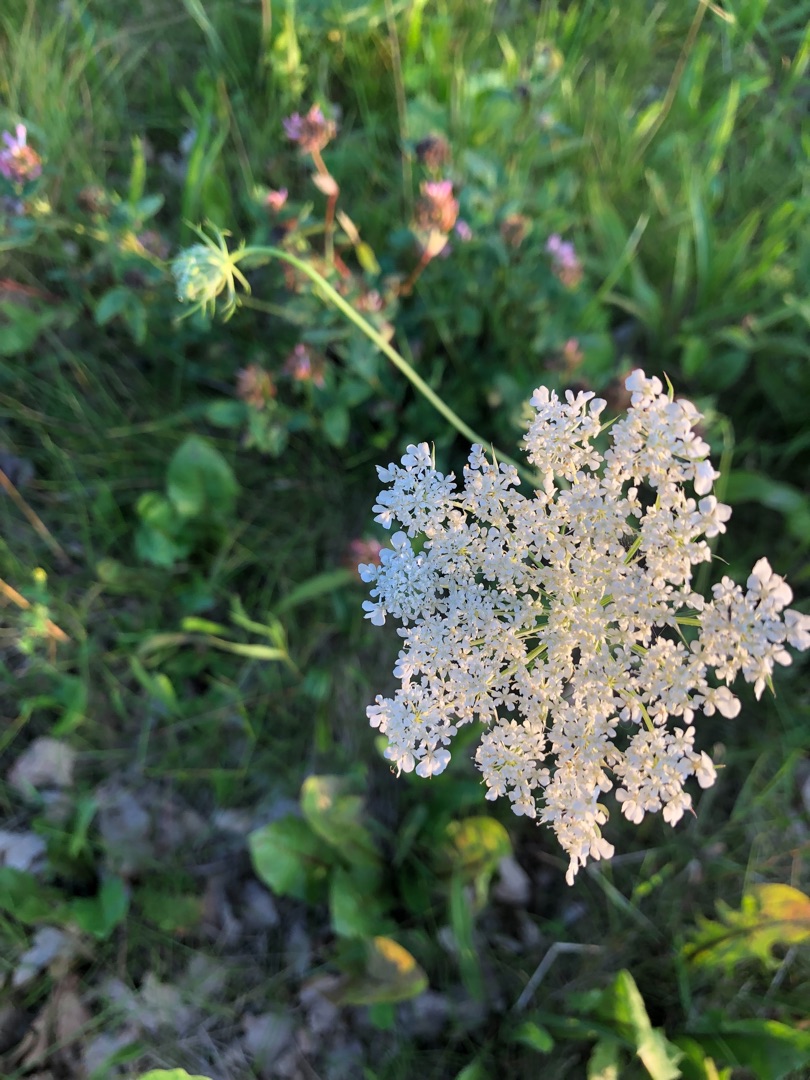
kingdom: Plantae
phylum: Tracheophyta
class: Magnoliopsida
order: Apiales
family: Apiaceae
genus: Daucus
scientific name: Daucus carota
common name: Gulerod
